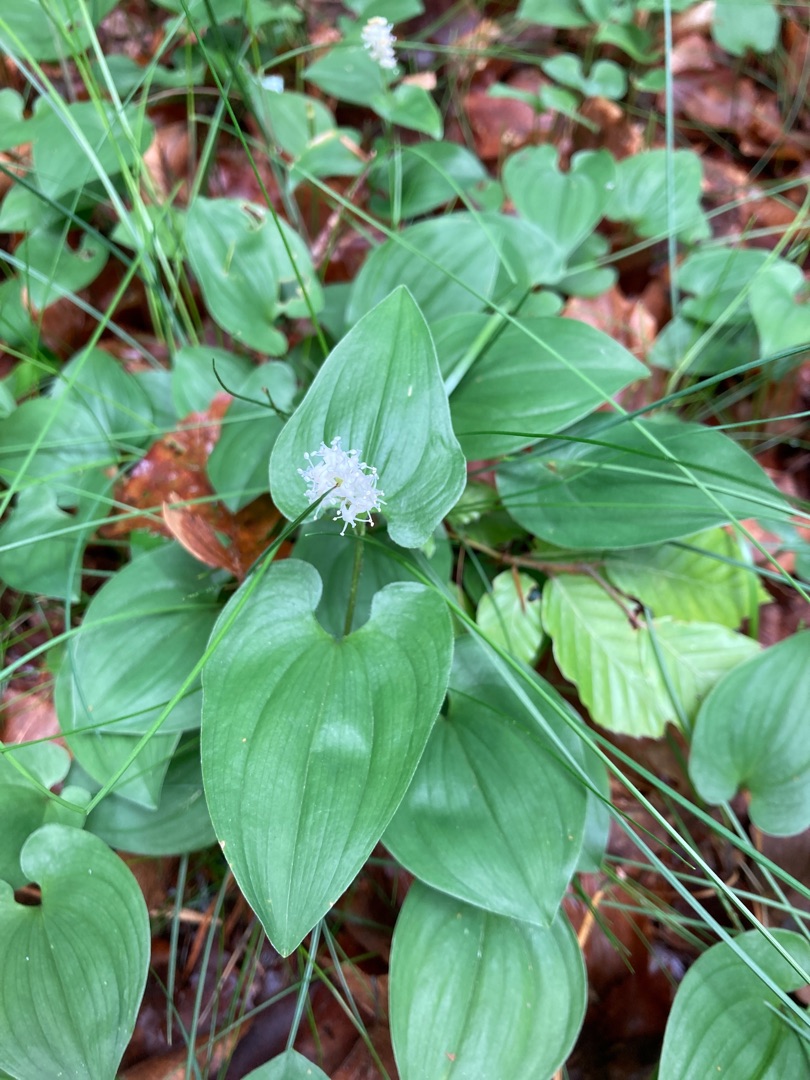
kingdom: Plantae
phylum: Tracheophyta
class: Liliopsida
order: Asparagales
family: Asparagaceae
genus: Maianthemum
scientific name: Maianthemum bifolium
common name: Majblomst
